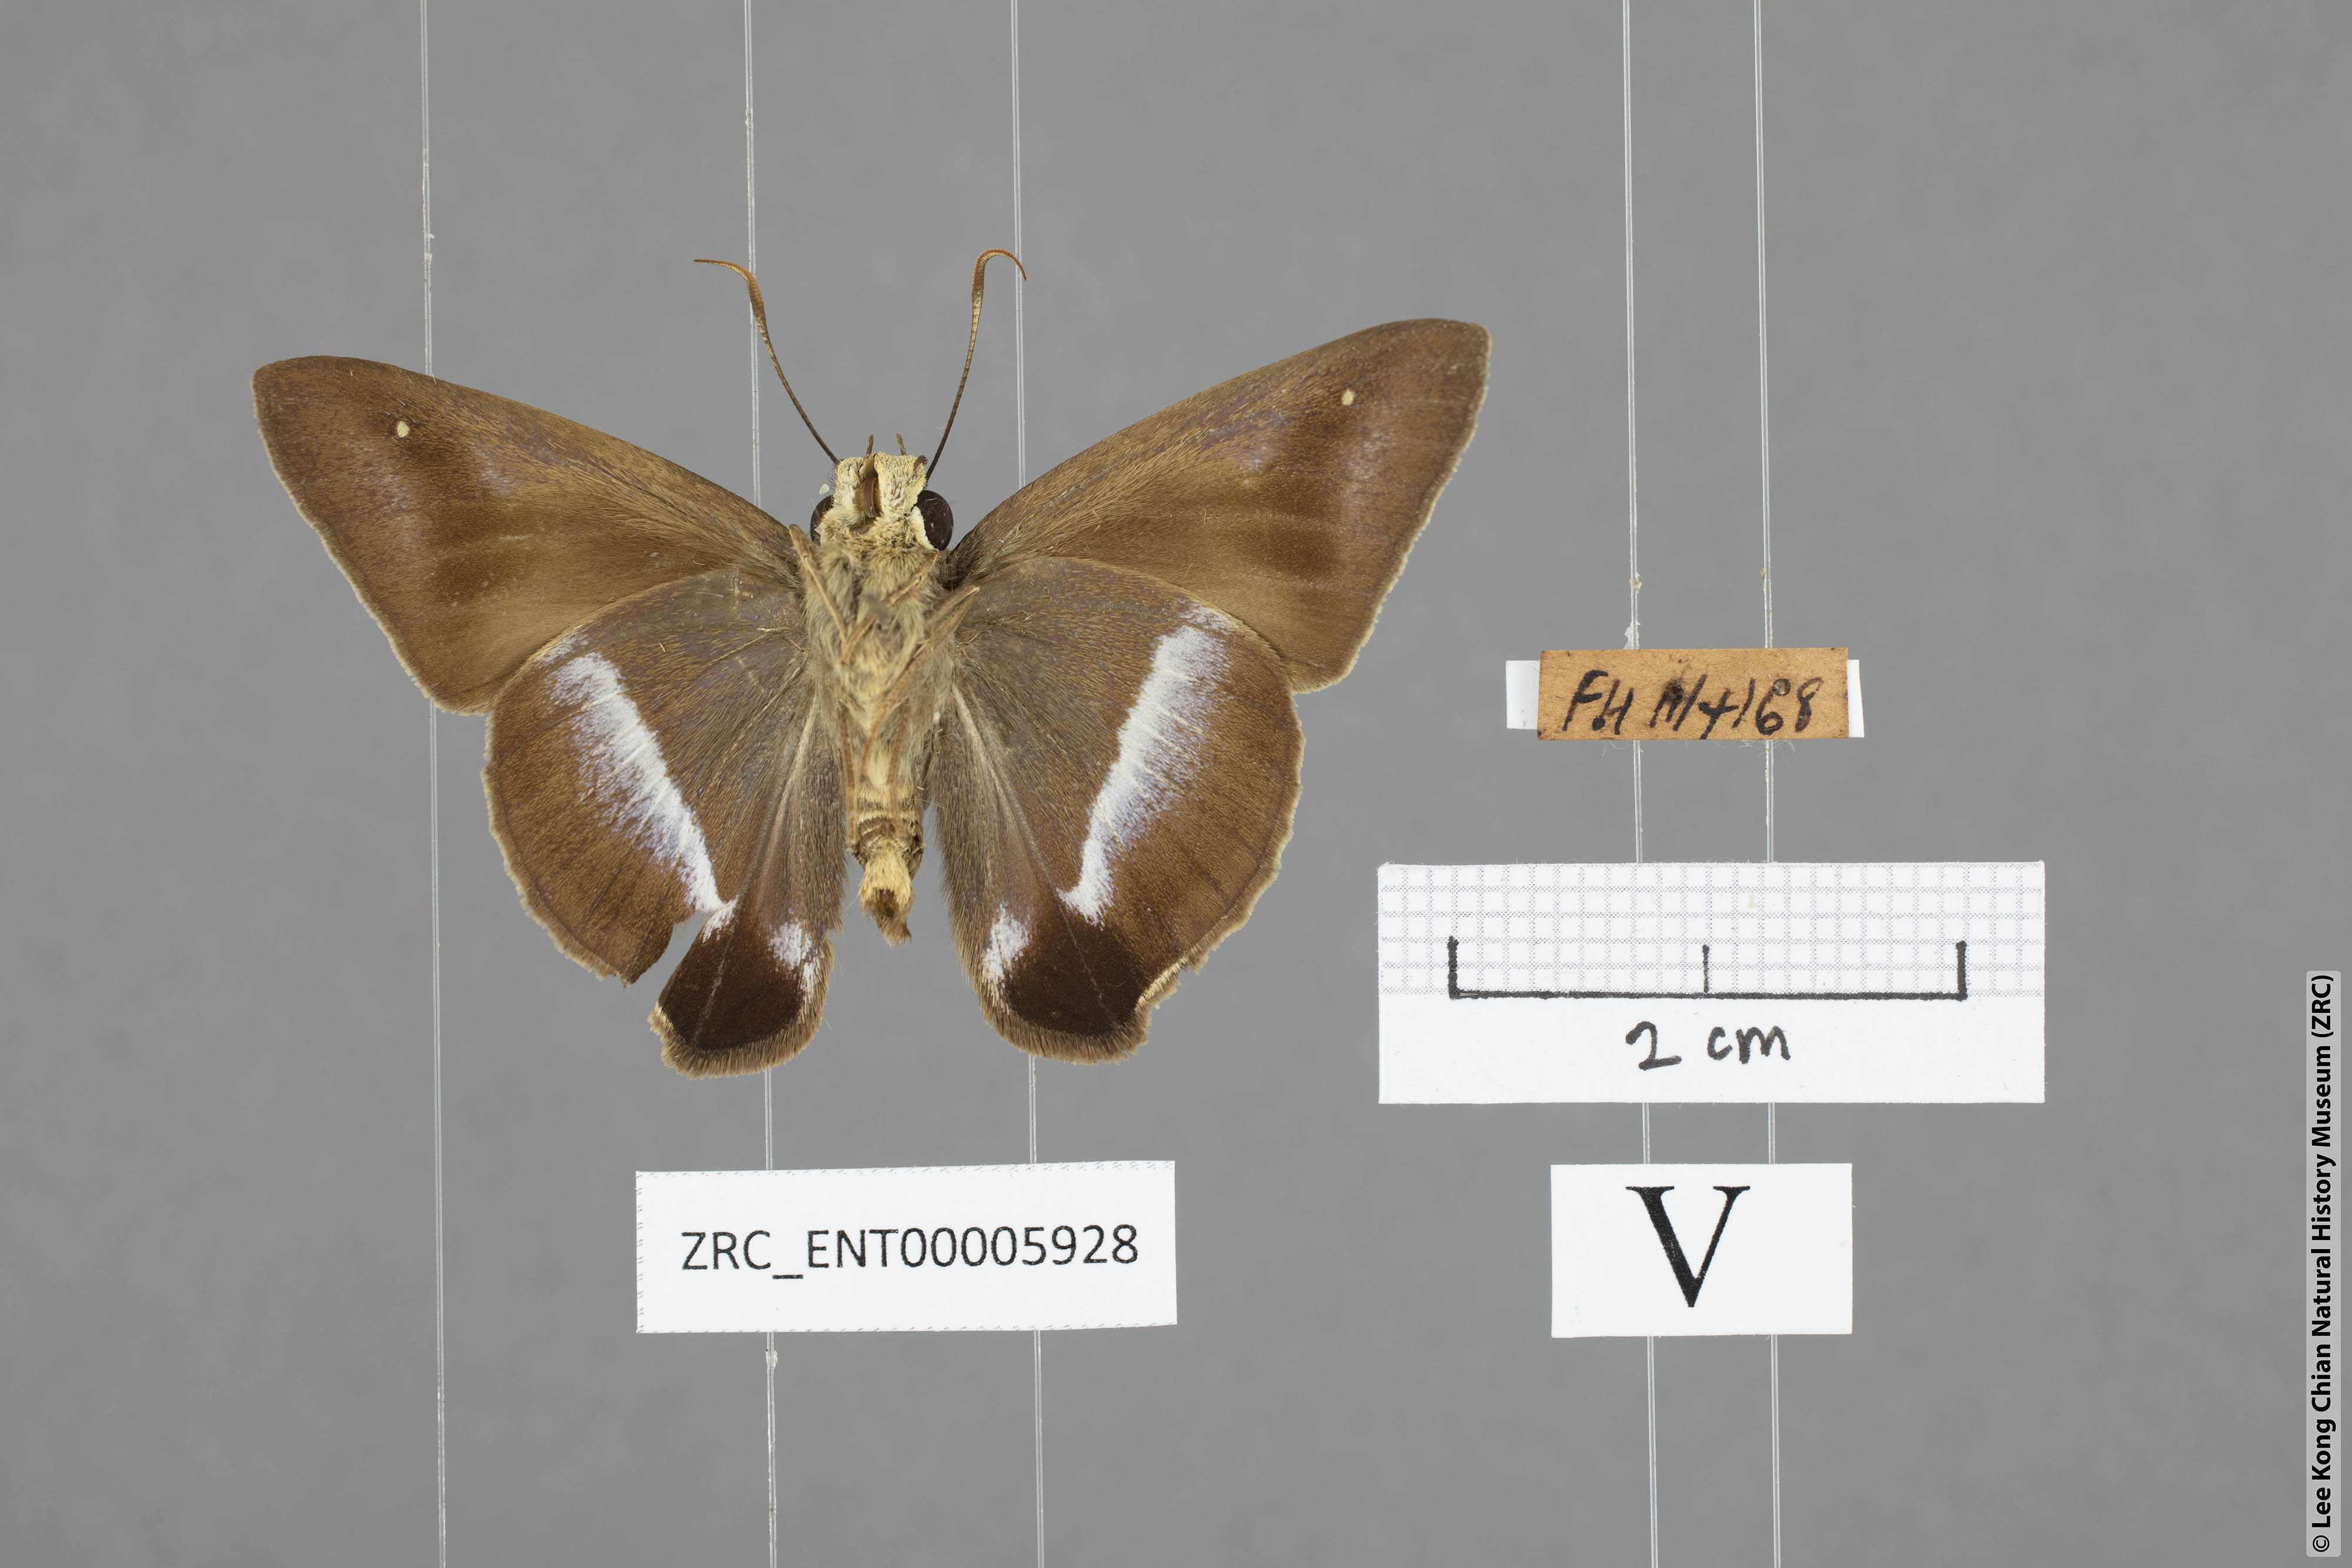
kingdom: Animalia
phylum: Arthropoda
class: Insecta
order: Lepidoptera
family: Hesperiidae
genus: Hasora
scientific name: Hasora vitta
